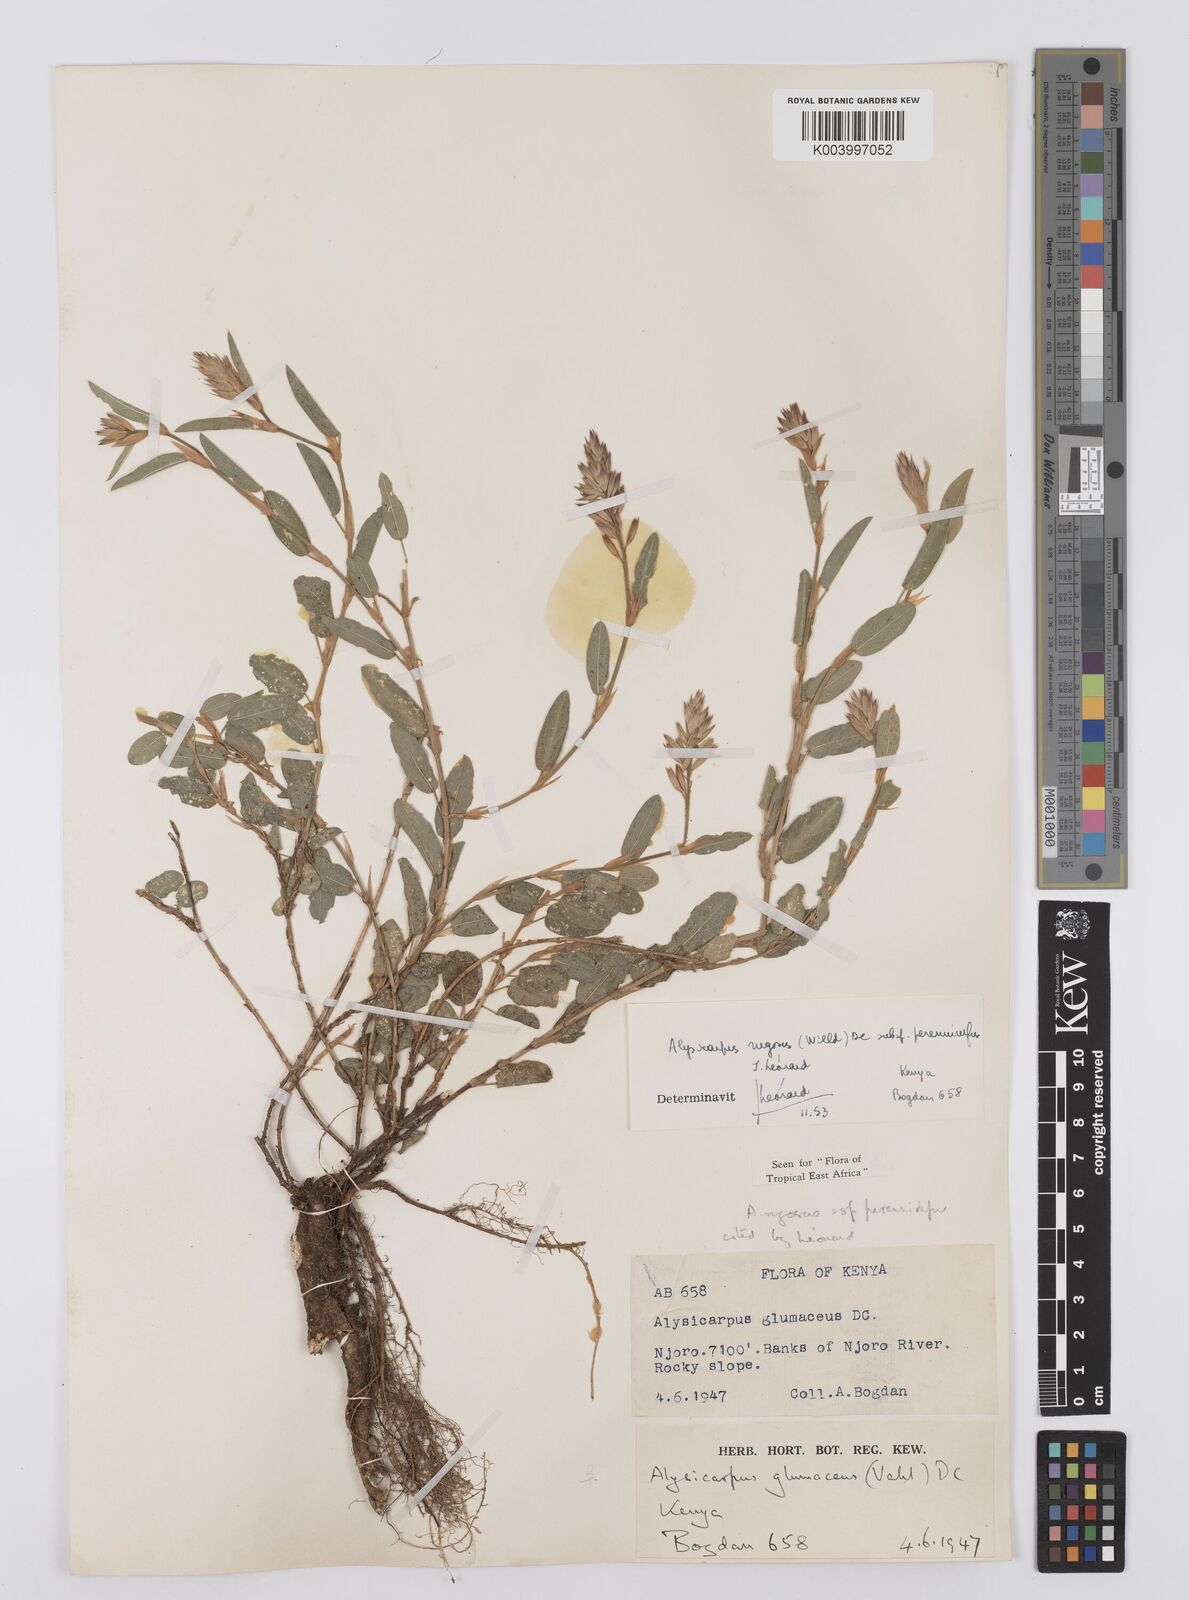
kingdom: Plantae
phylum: Tracheophyta
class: Magnoliopsida
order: Fabales
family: Fabaceae
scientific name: Fabaceae
